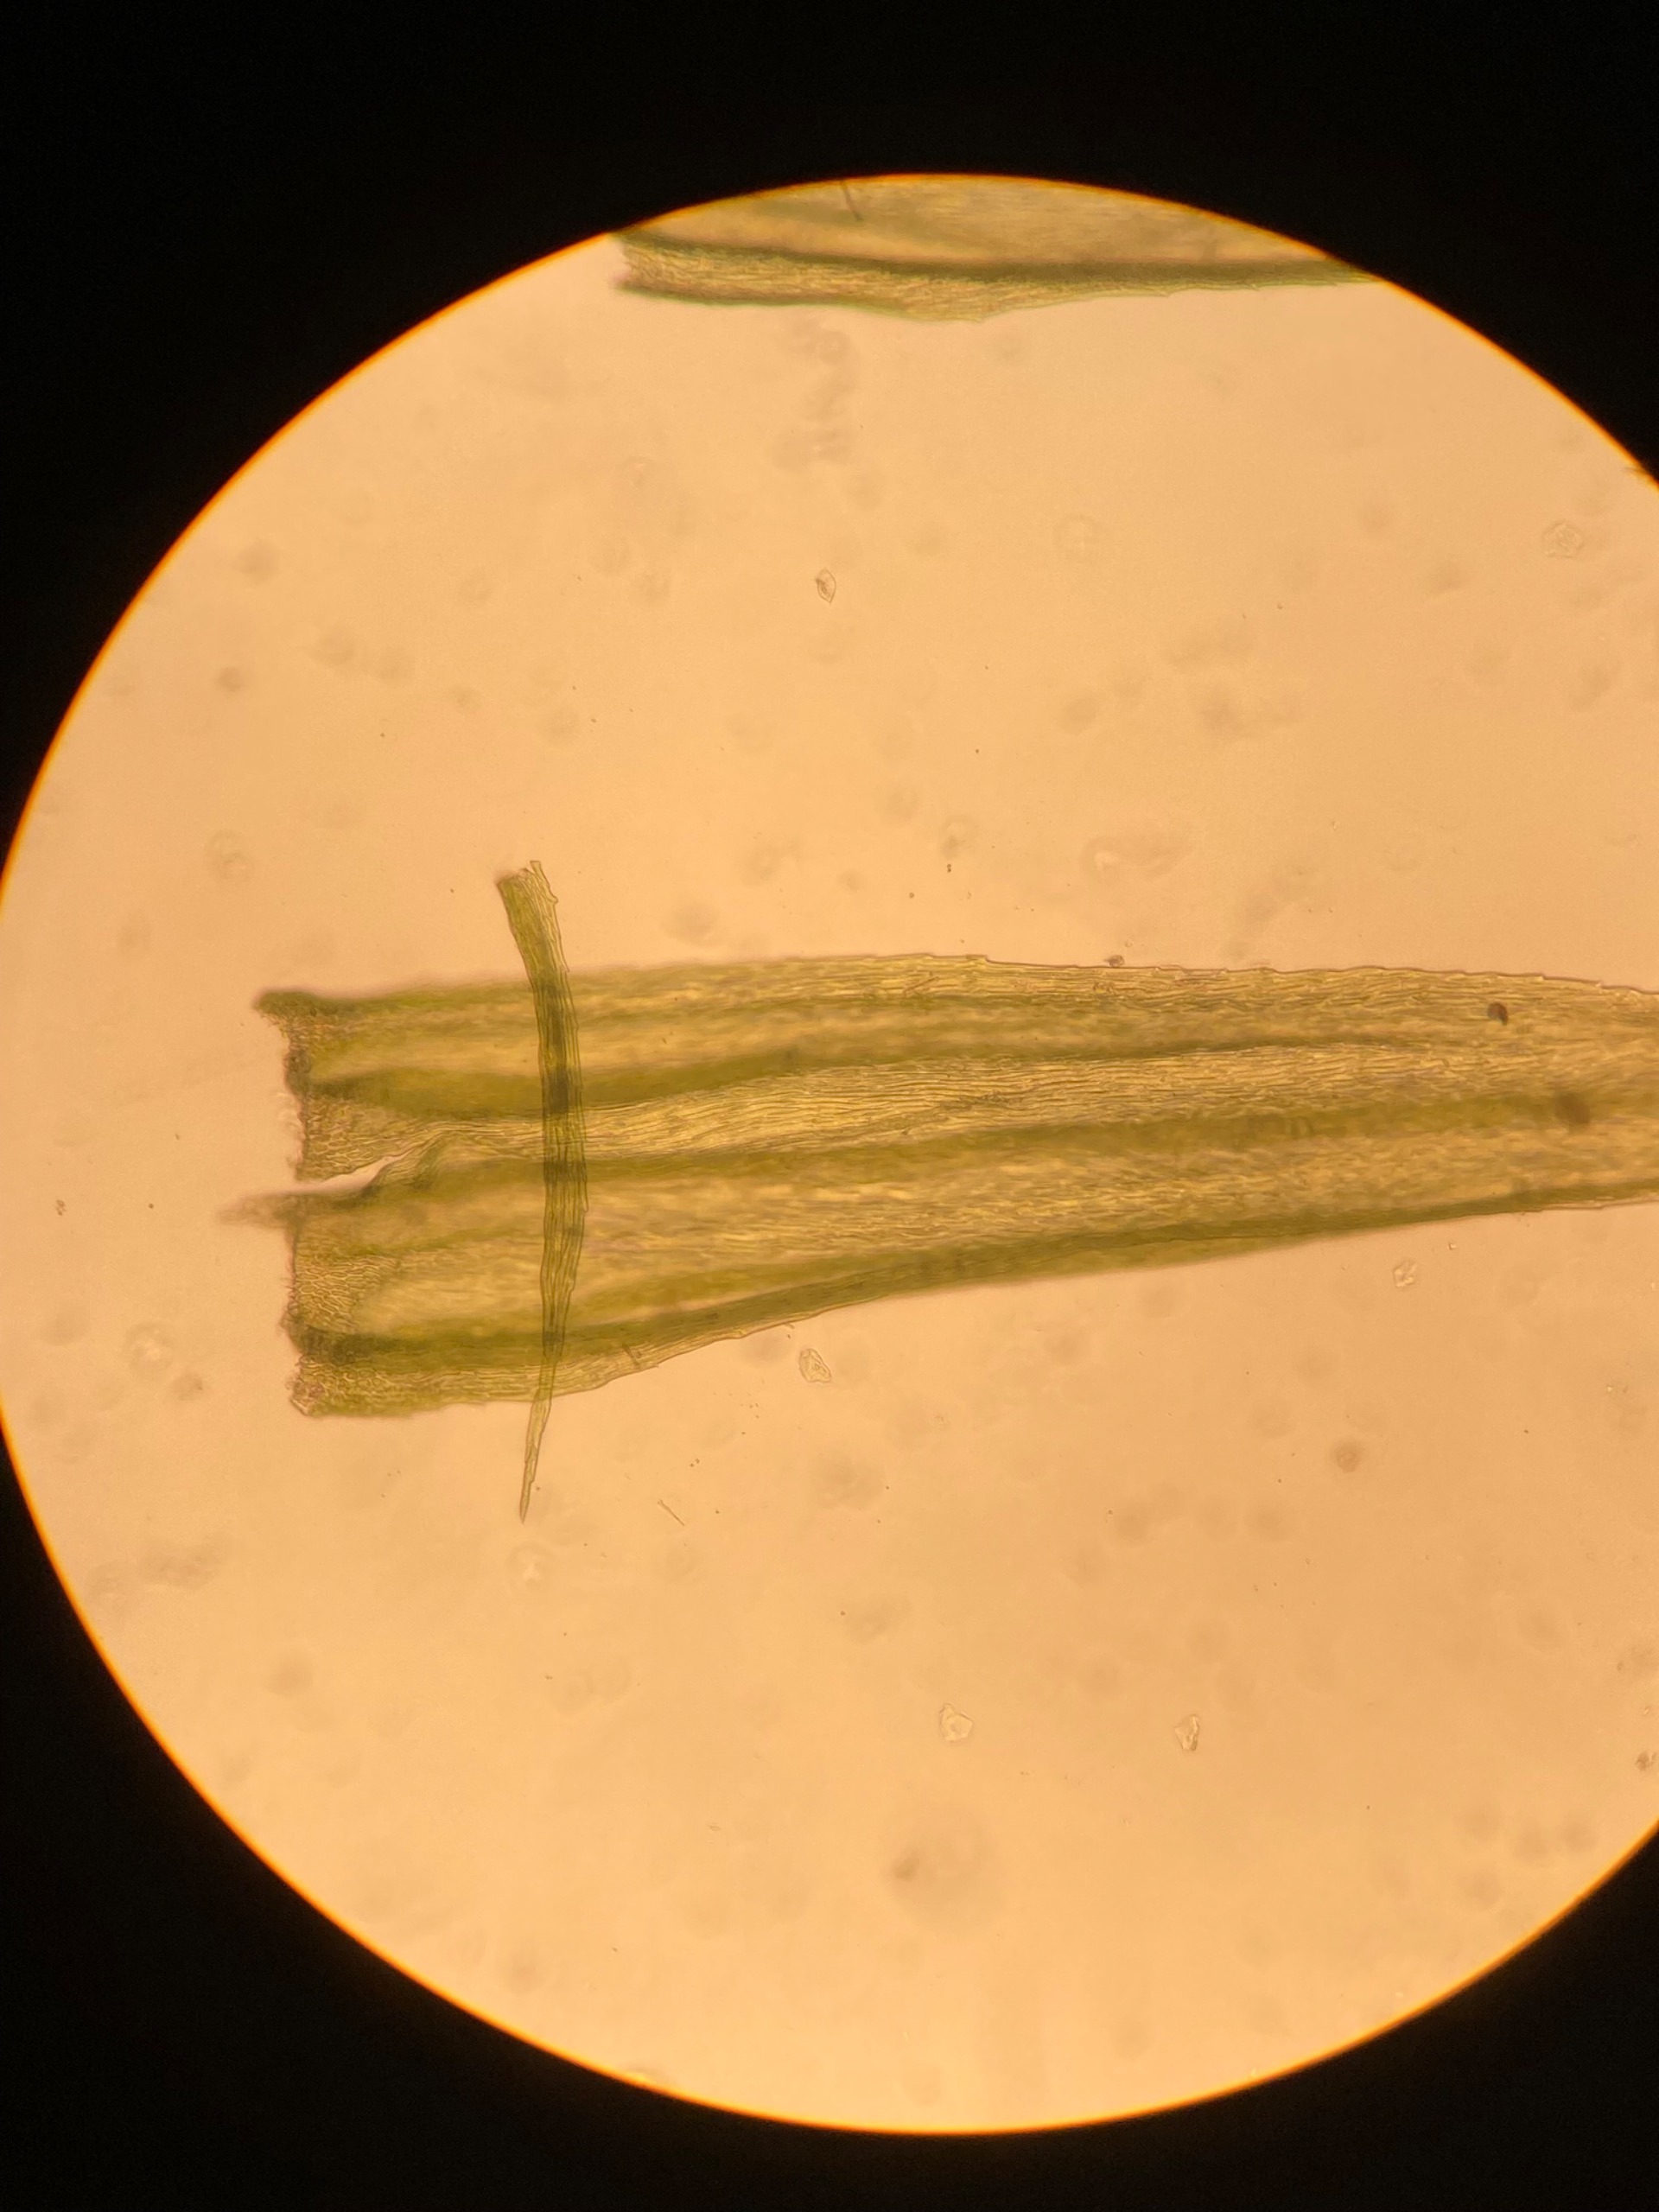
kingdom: Plantae
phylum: Bryophyta
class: Bryopsida
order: Hypnales
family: Brachytheciaceae
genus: Homalothecium
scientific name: Homalothecium sericeum
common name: Krybende silkemos
